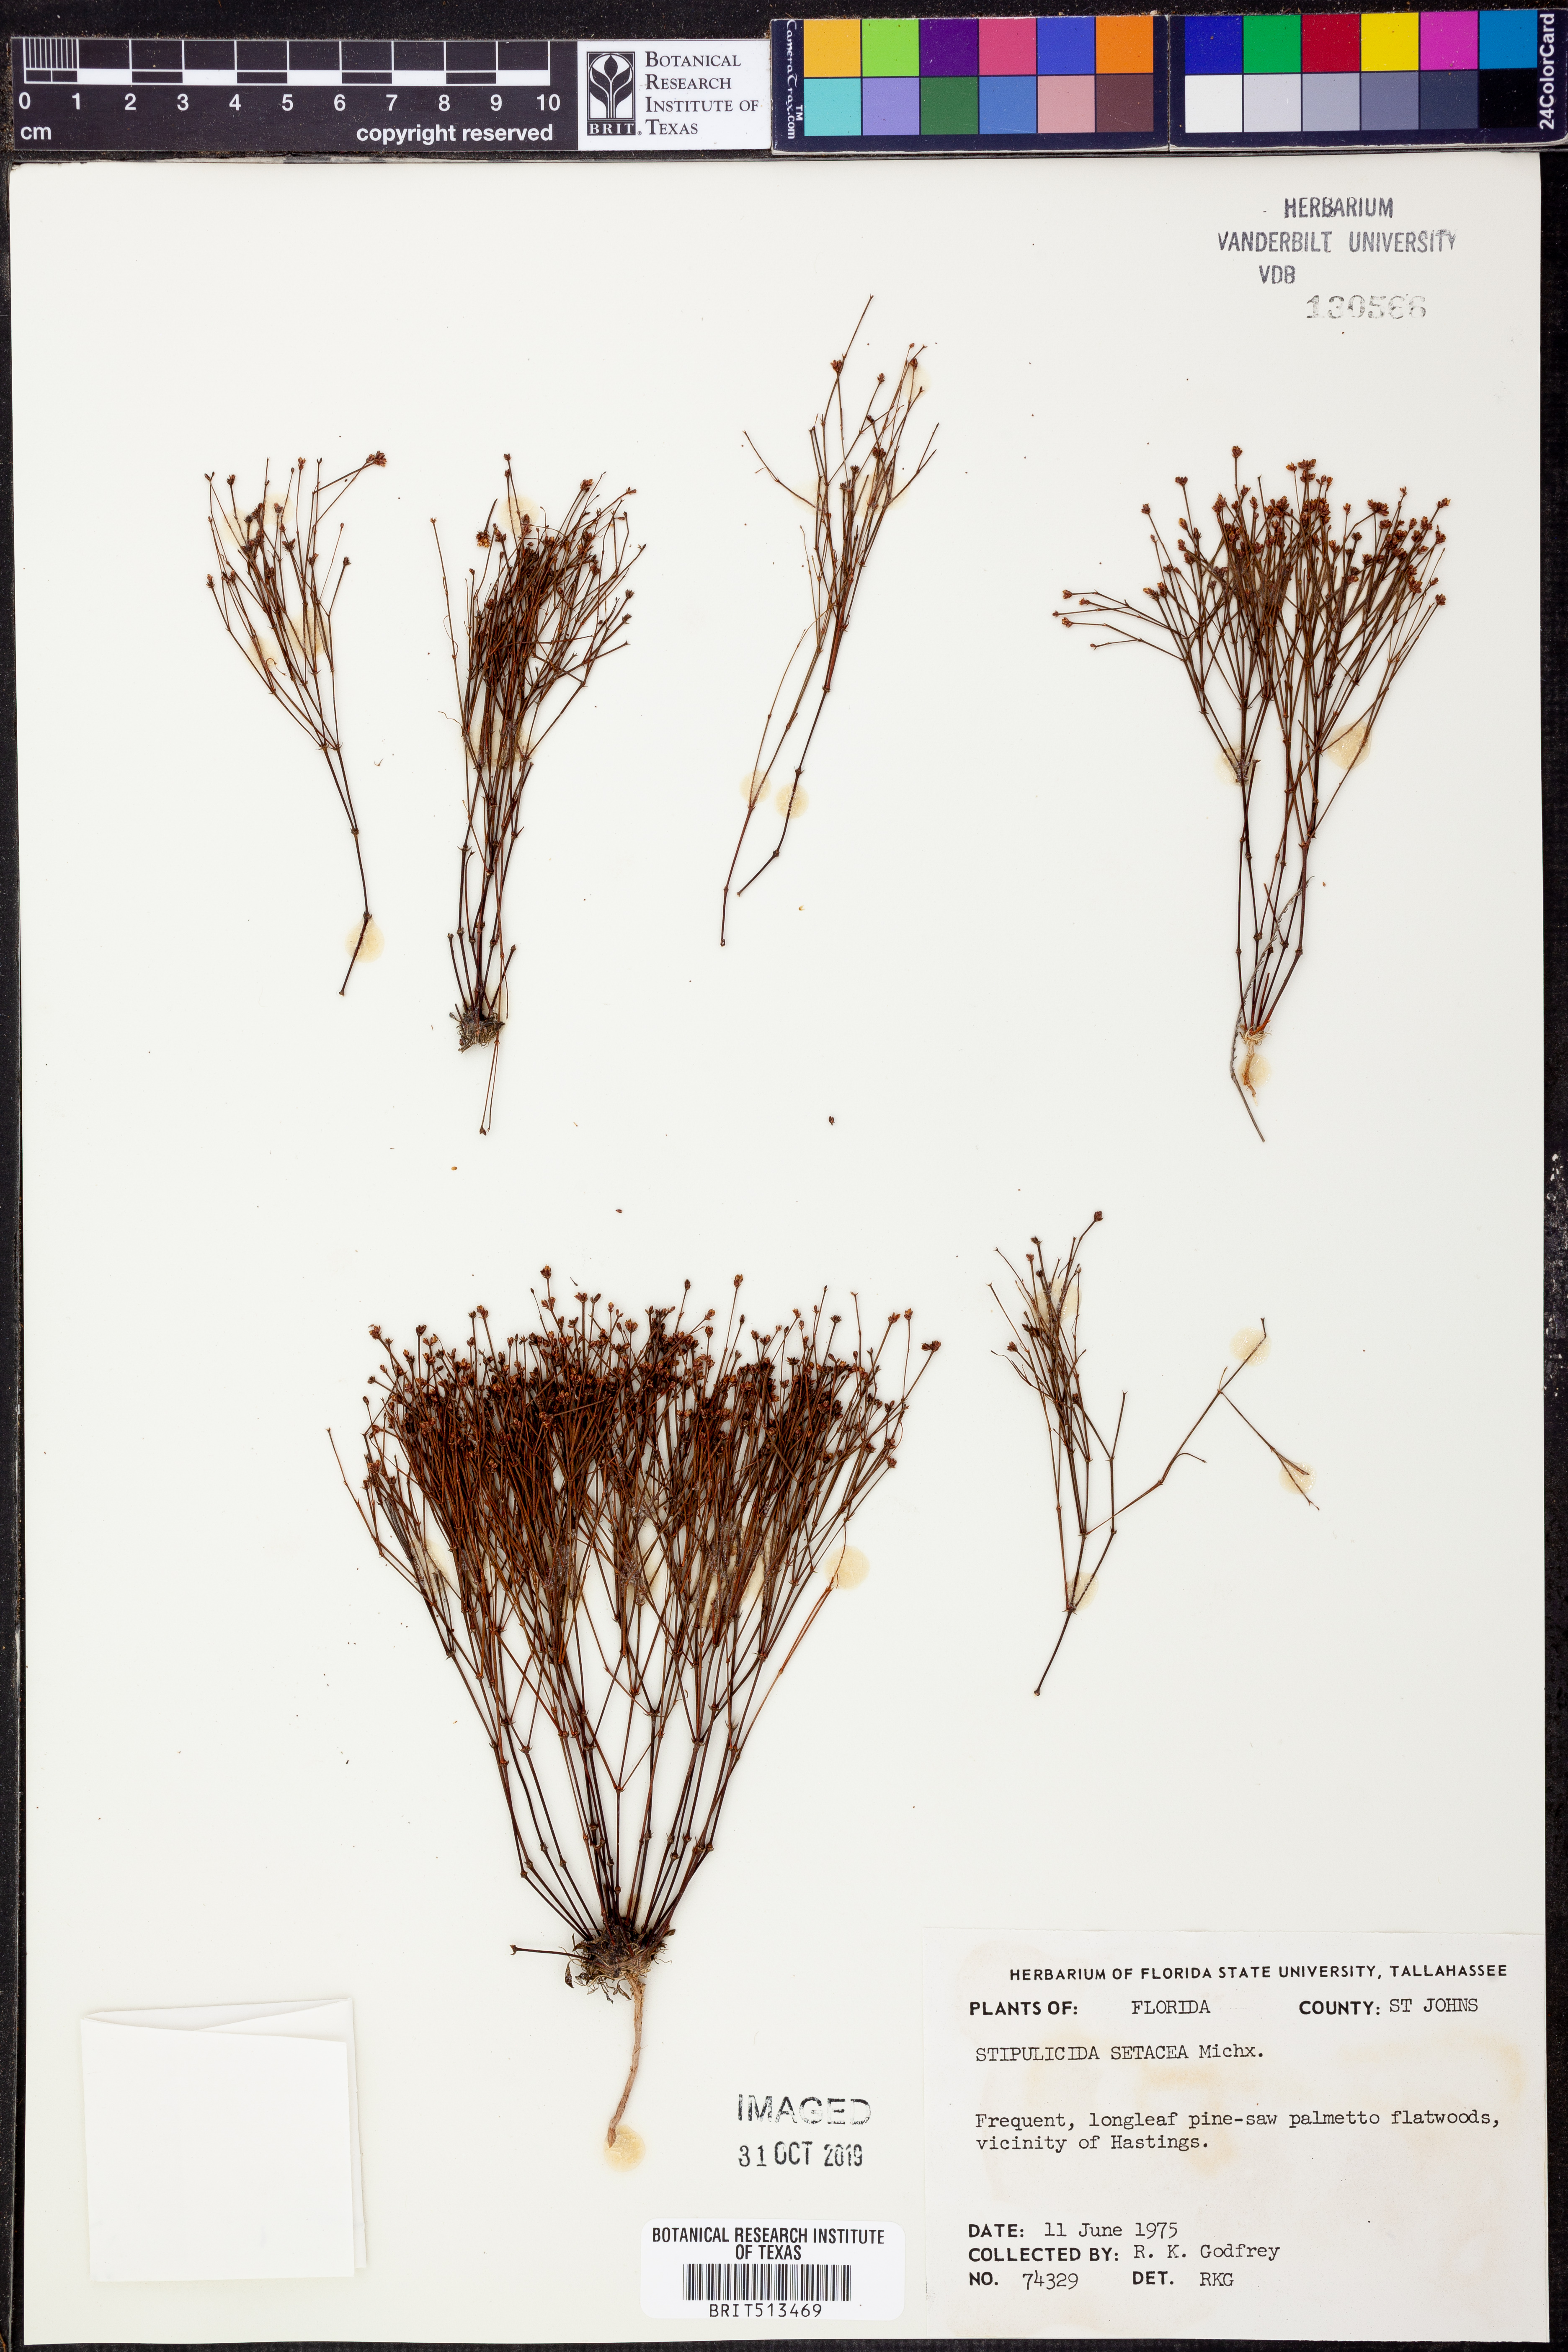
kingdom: Plantae
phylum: Tracheophyta
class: Magnoliopsida
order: Caryophyllales
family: Caryophyllaceae
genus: Stipulicida
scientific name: Stipulicida setacea
